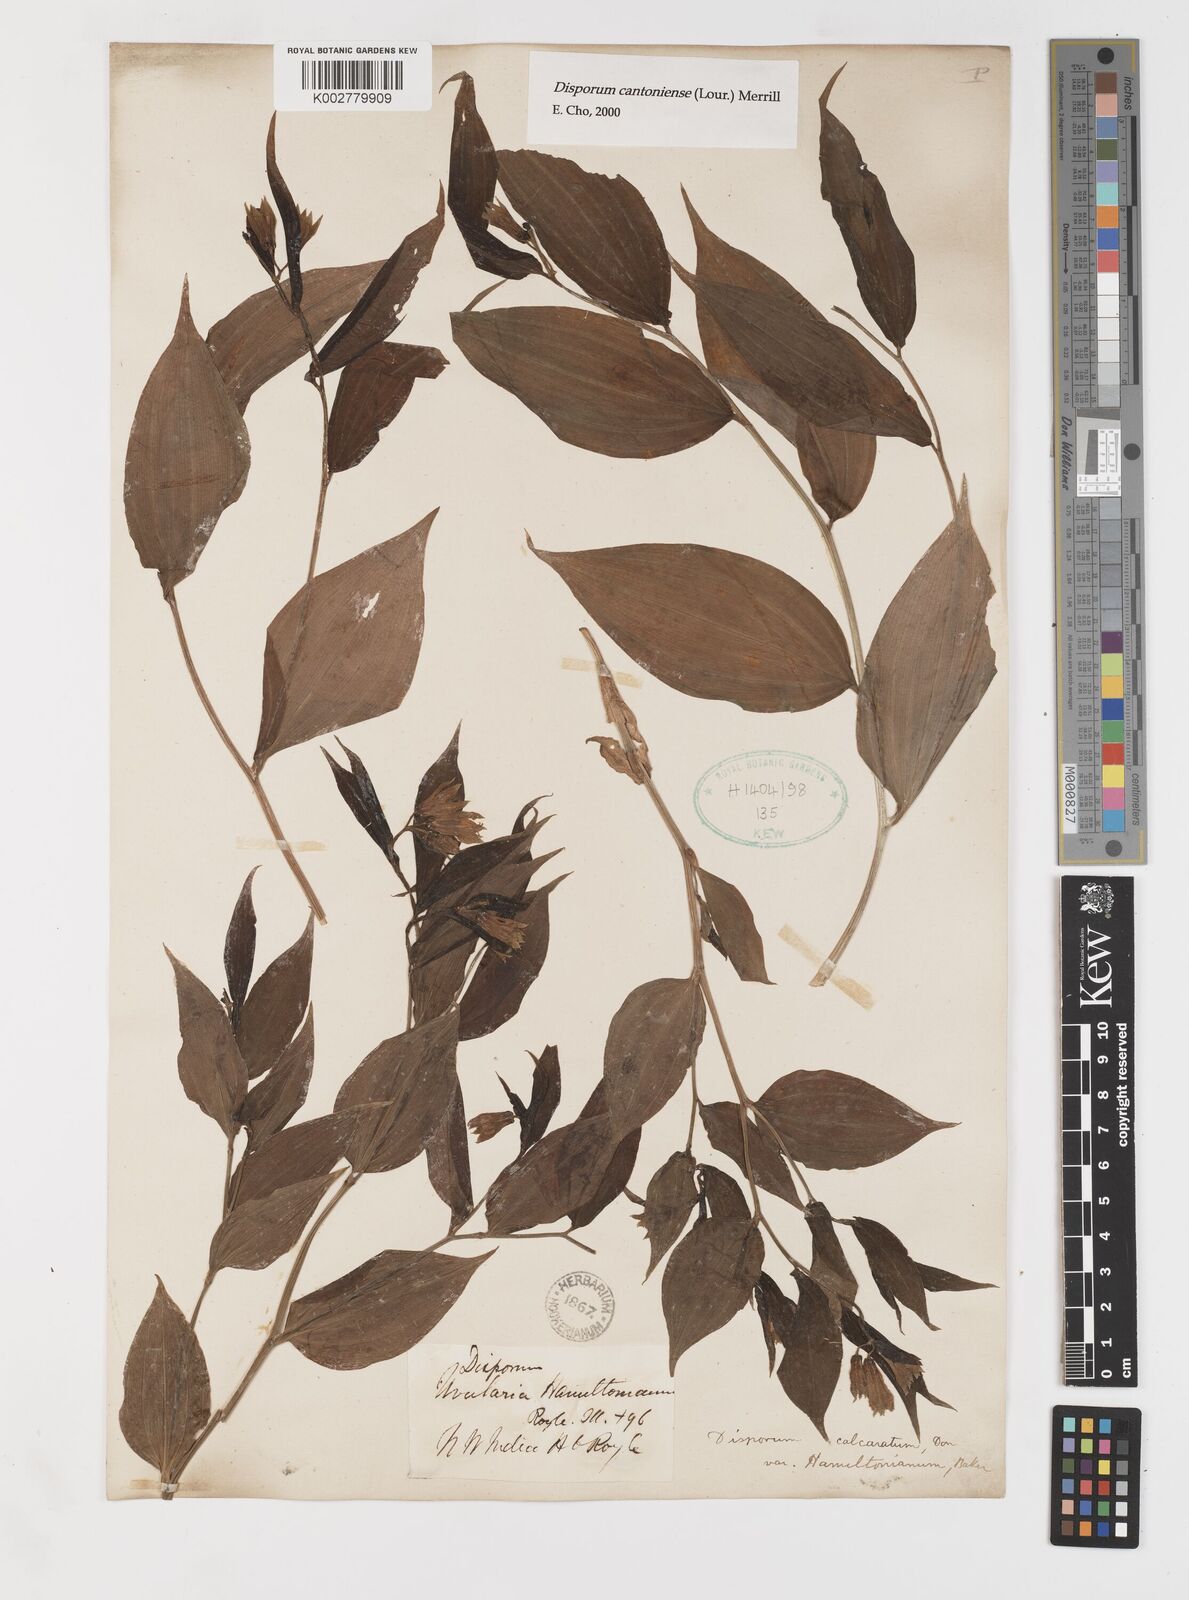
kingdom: Plantae
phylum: Tracheophyta
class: Liliopsida
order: Liliales
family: Colchicaceae
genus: Disporum
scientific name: Disporum cantoniense
